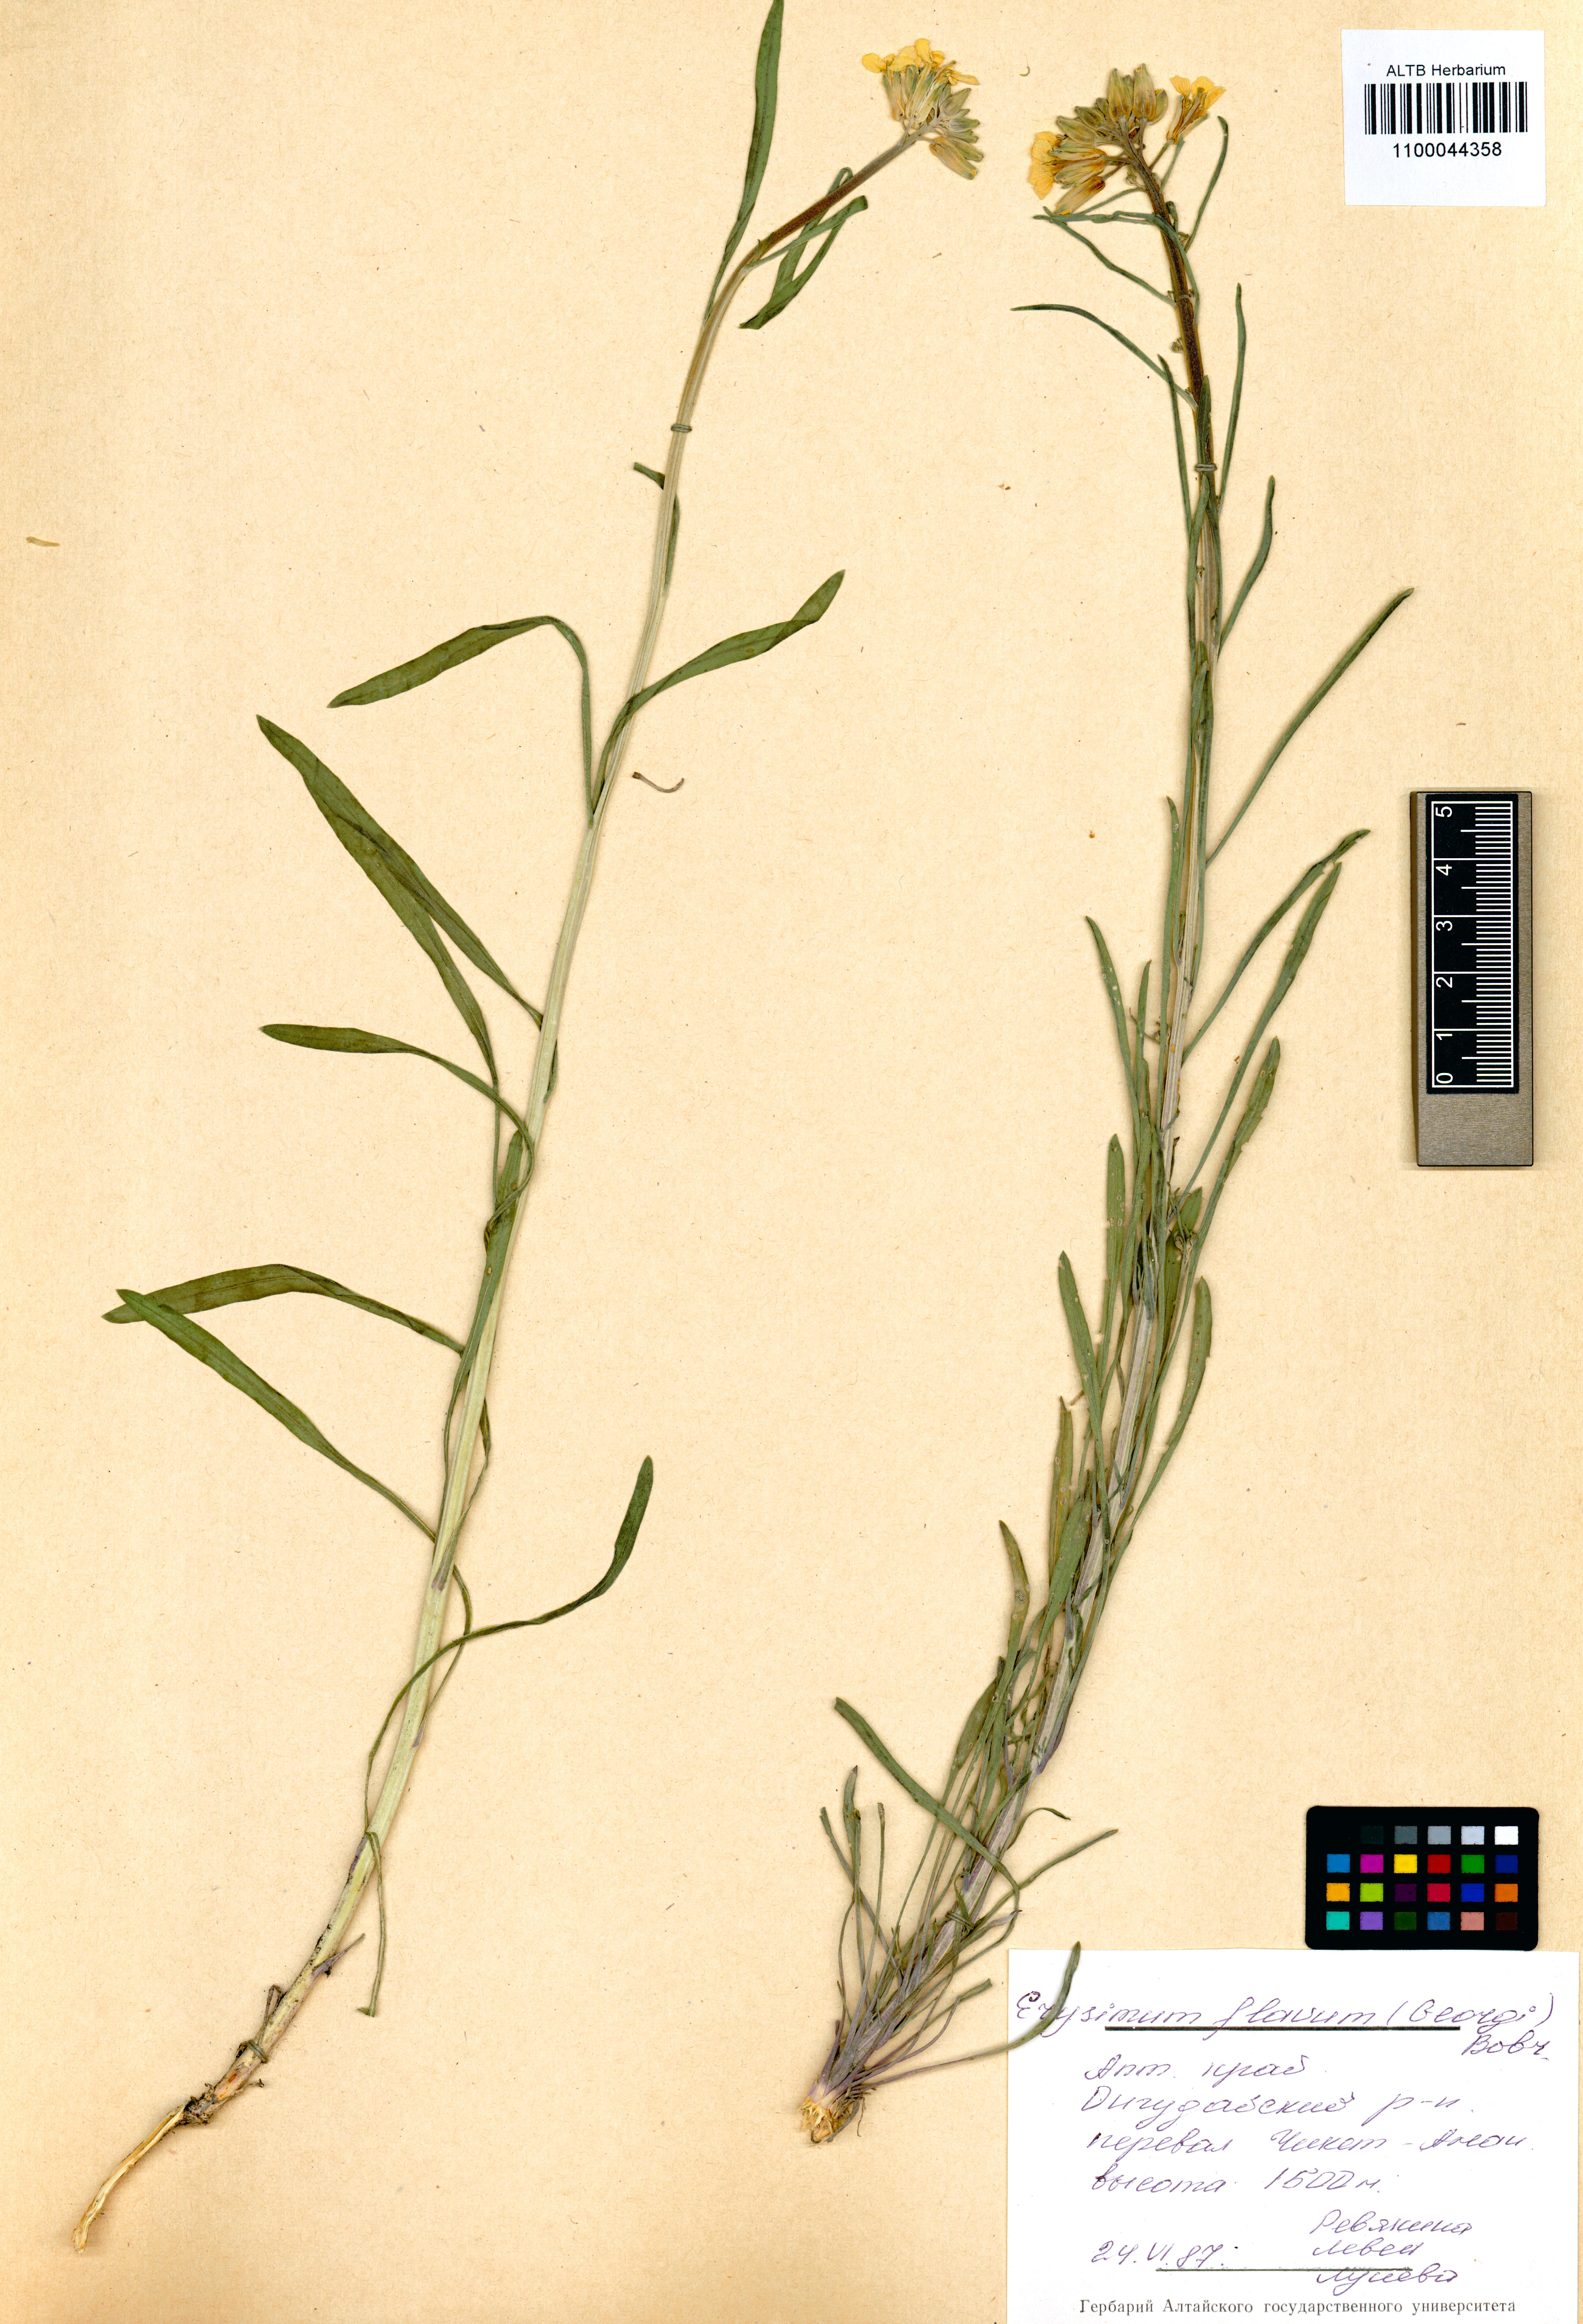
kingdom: Plantae
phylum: Tracheophyta
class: Magnoliopsida
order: Brassicales
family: Brassicaceae
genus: Erysimum
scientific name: Erysimum flavum
